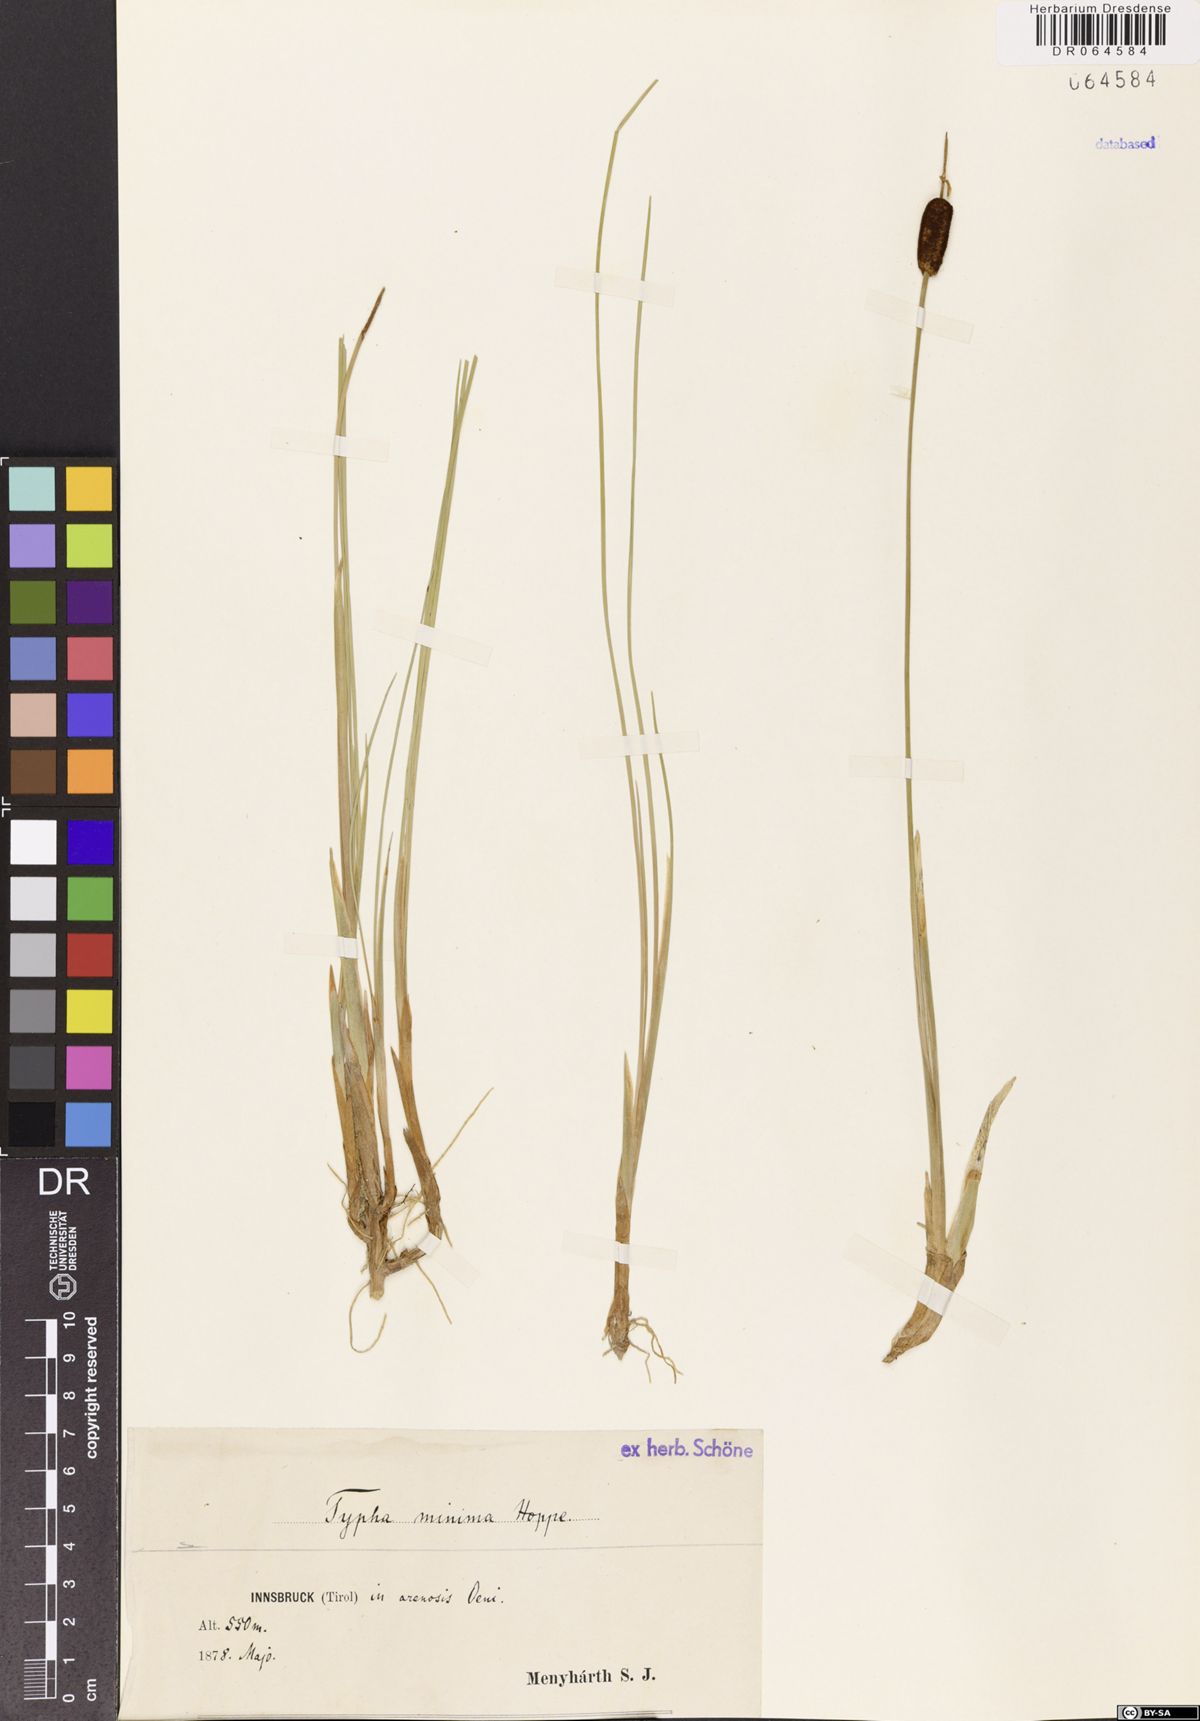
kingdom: Plantae
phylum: Tracheophyta
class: Liliopsida
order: Poales
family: Typhaceae
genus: Typha
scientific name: Typha minima
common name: Dwarf bulrush
